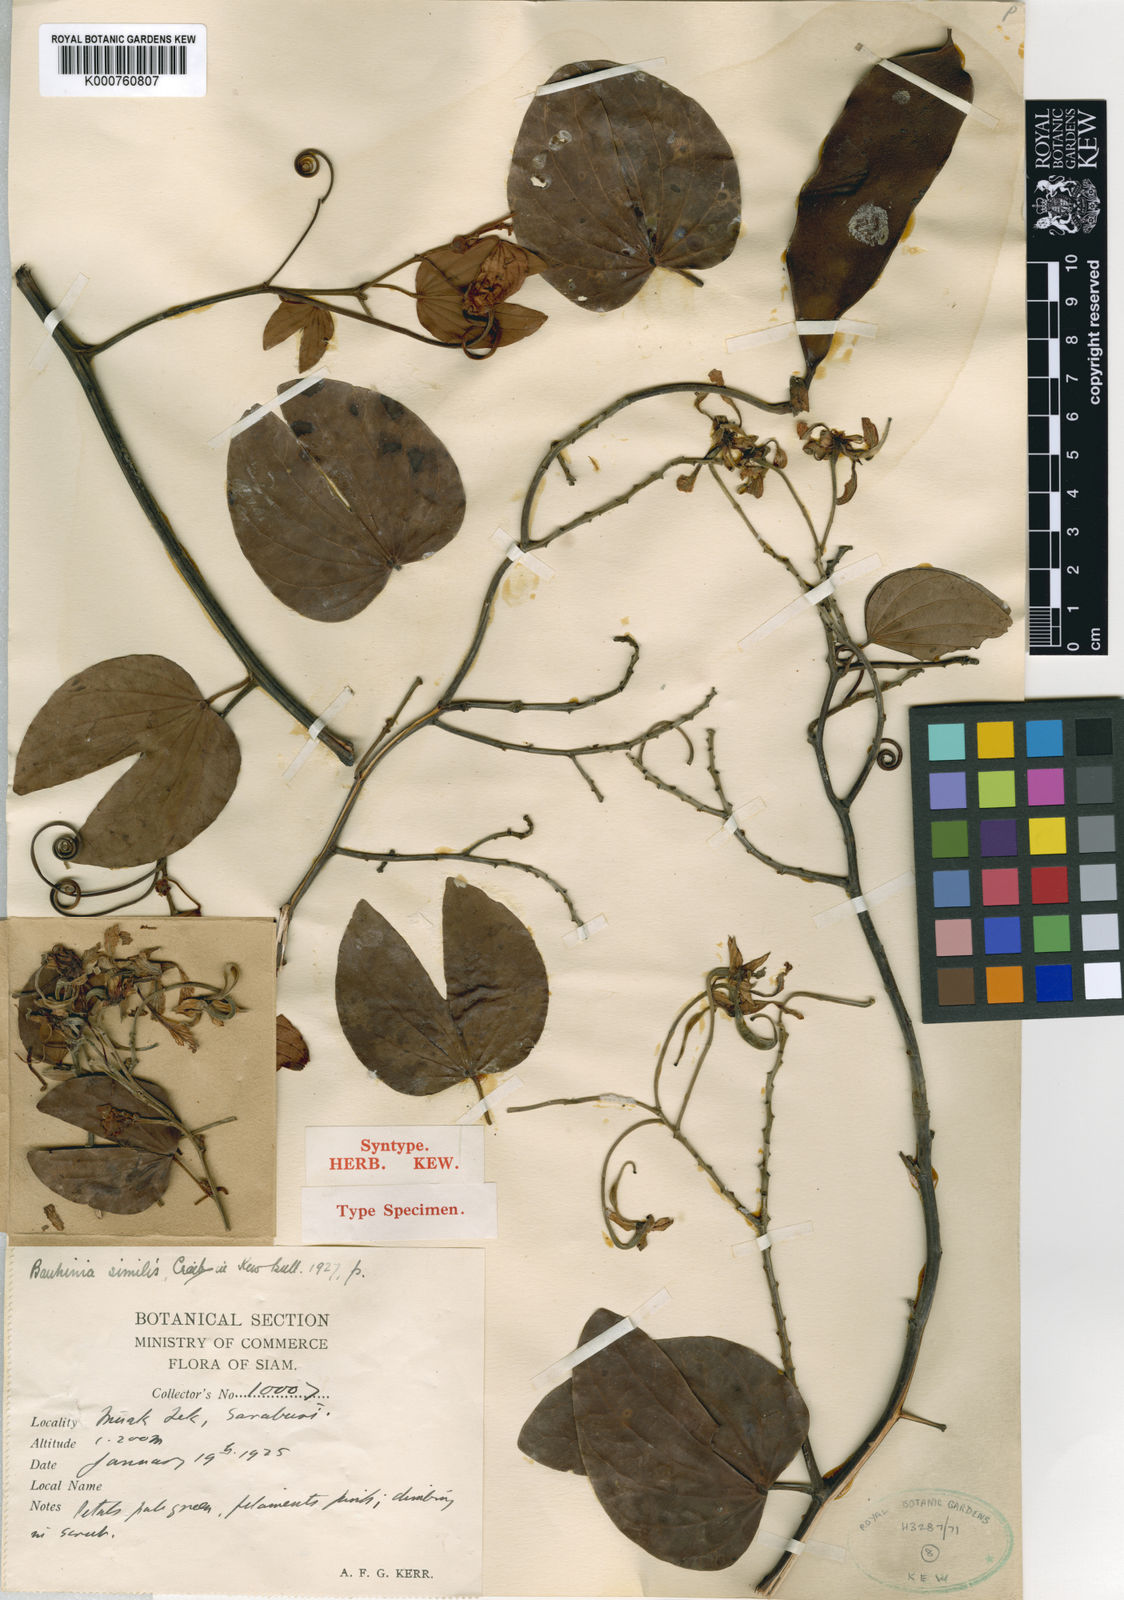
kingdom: Plantae
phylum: Tracheophyta
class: Magnoliopsida
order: Fabales
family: Fabaceae
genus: Phanera
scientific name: Phanera similis
